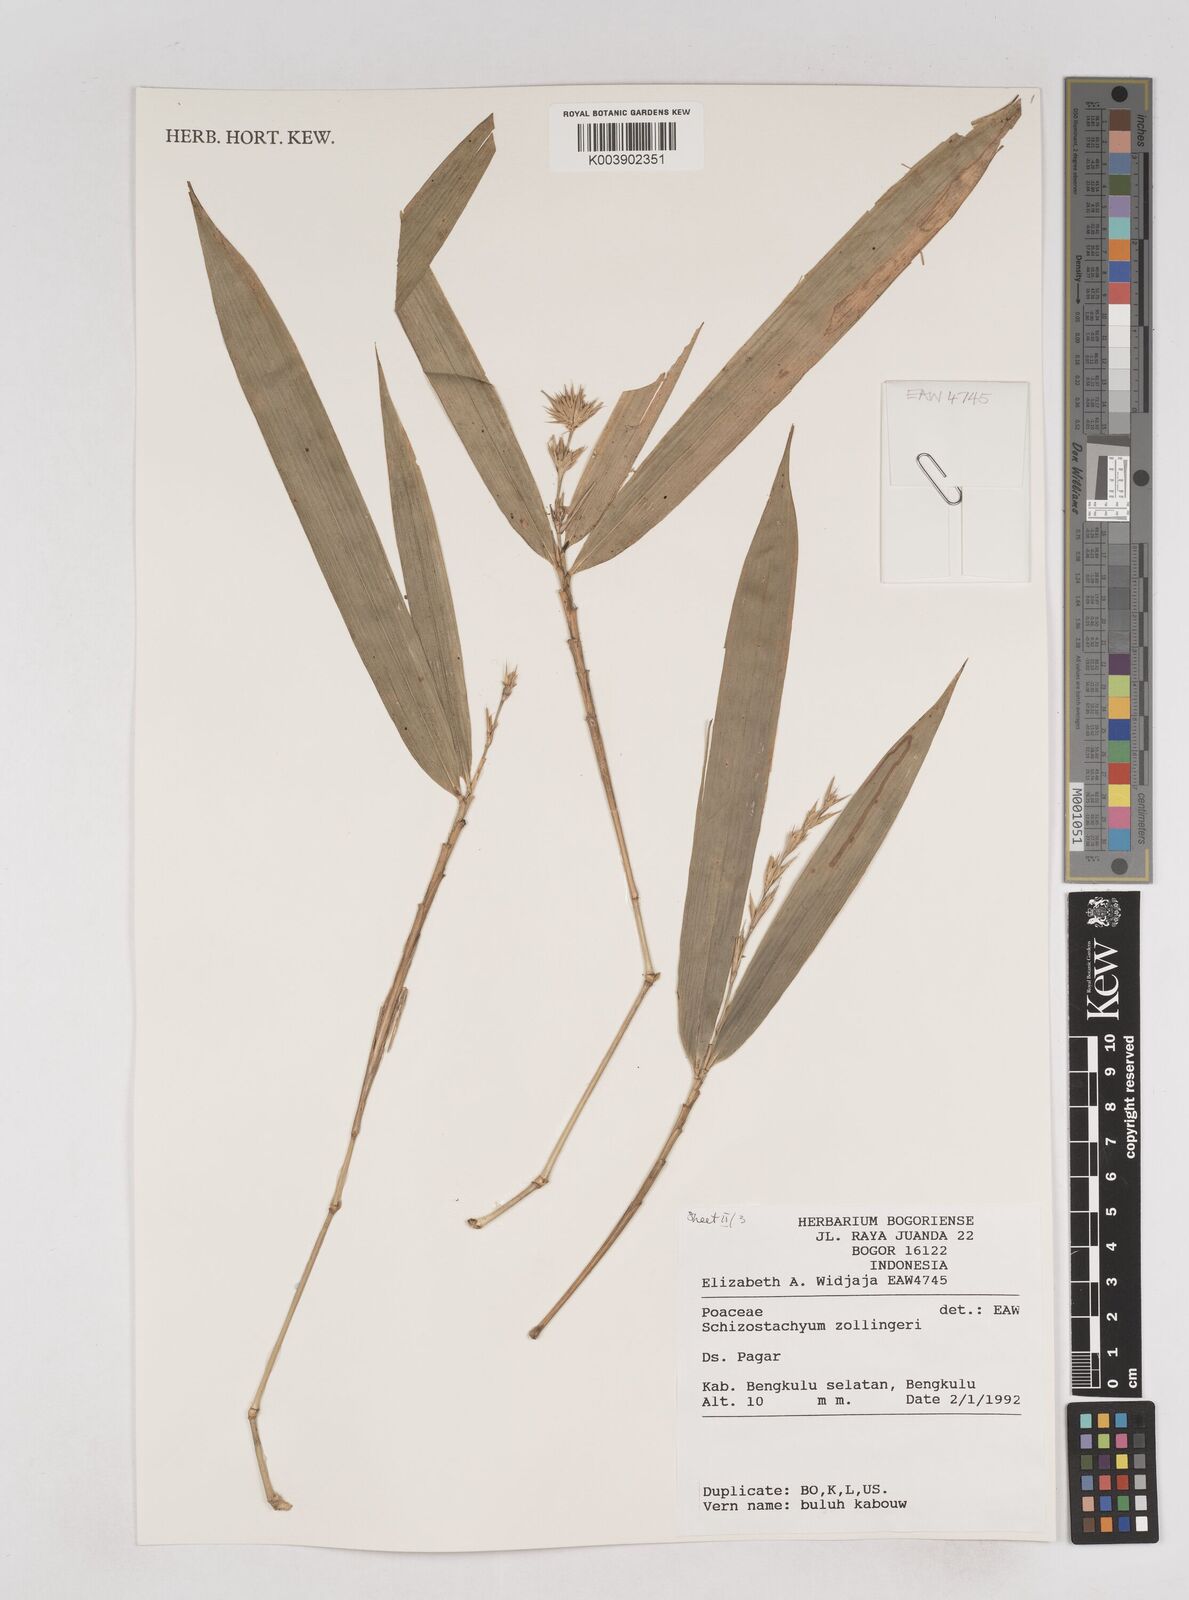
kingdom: Plantae
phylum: Tracheophyta
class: Liliopsida
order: Poales
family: Poaceae
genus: Schizostachyum
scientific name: Schizostachyum zollingeri
